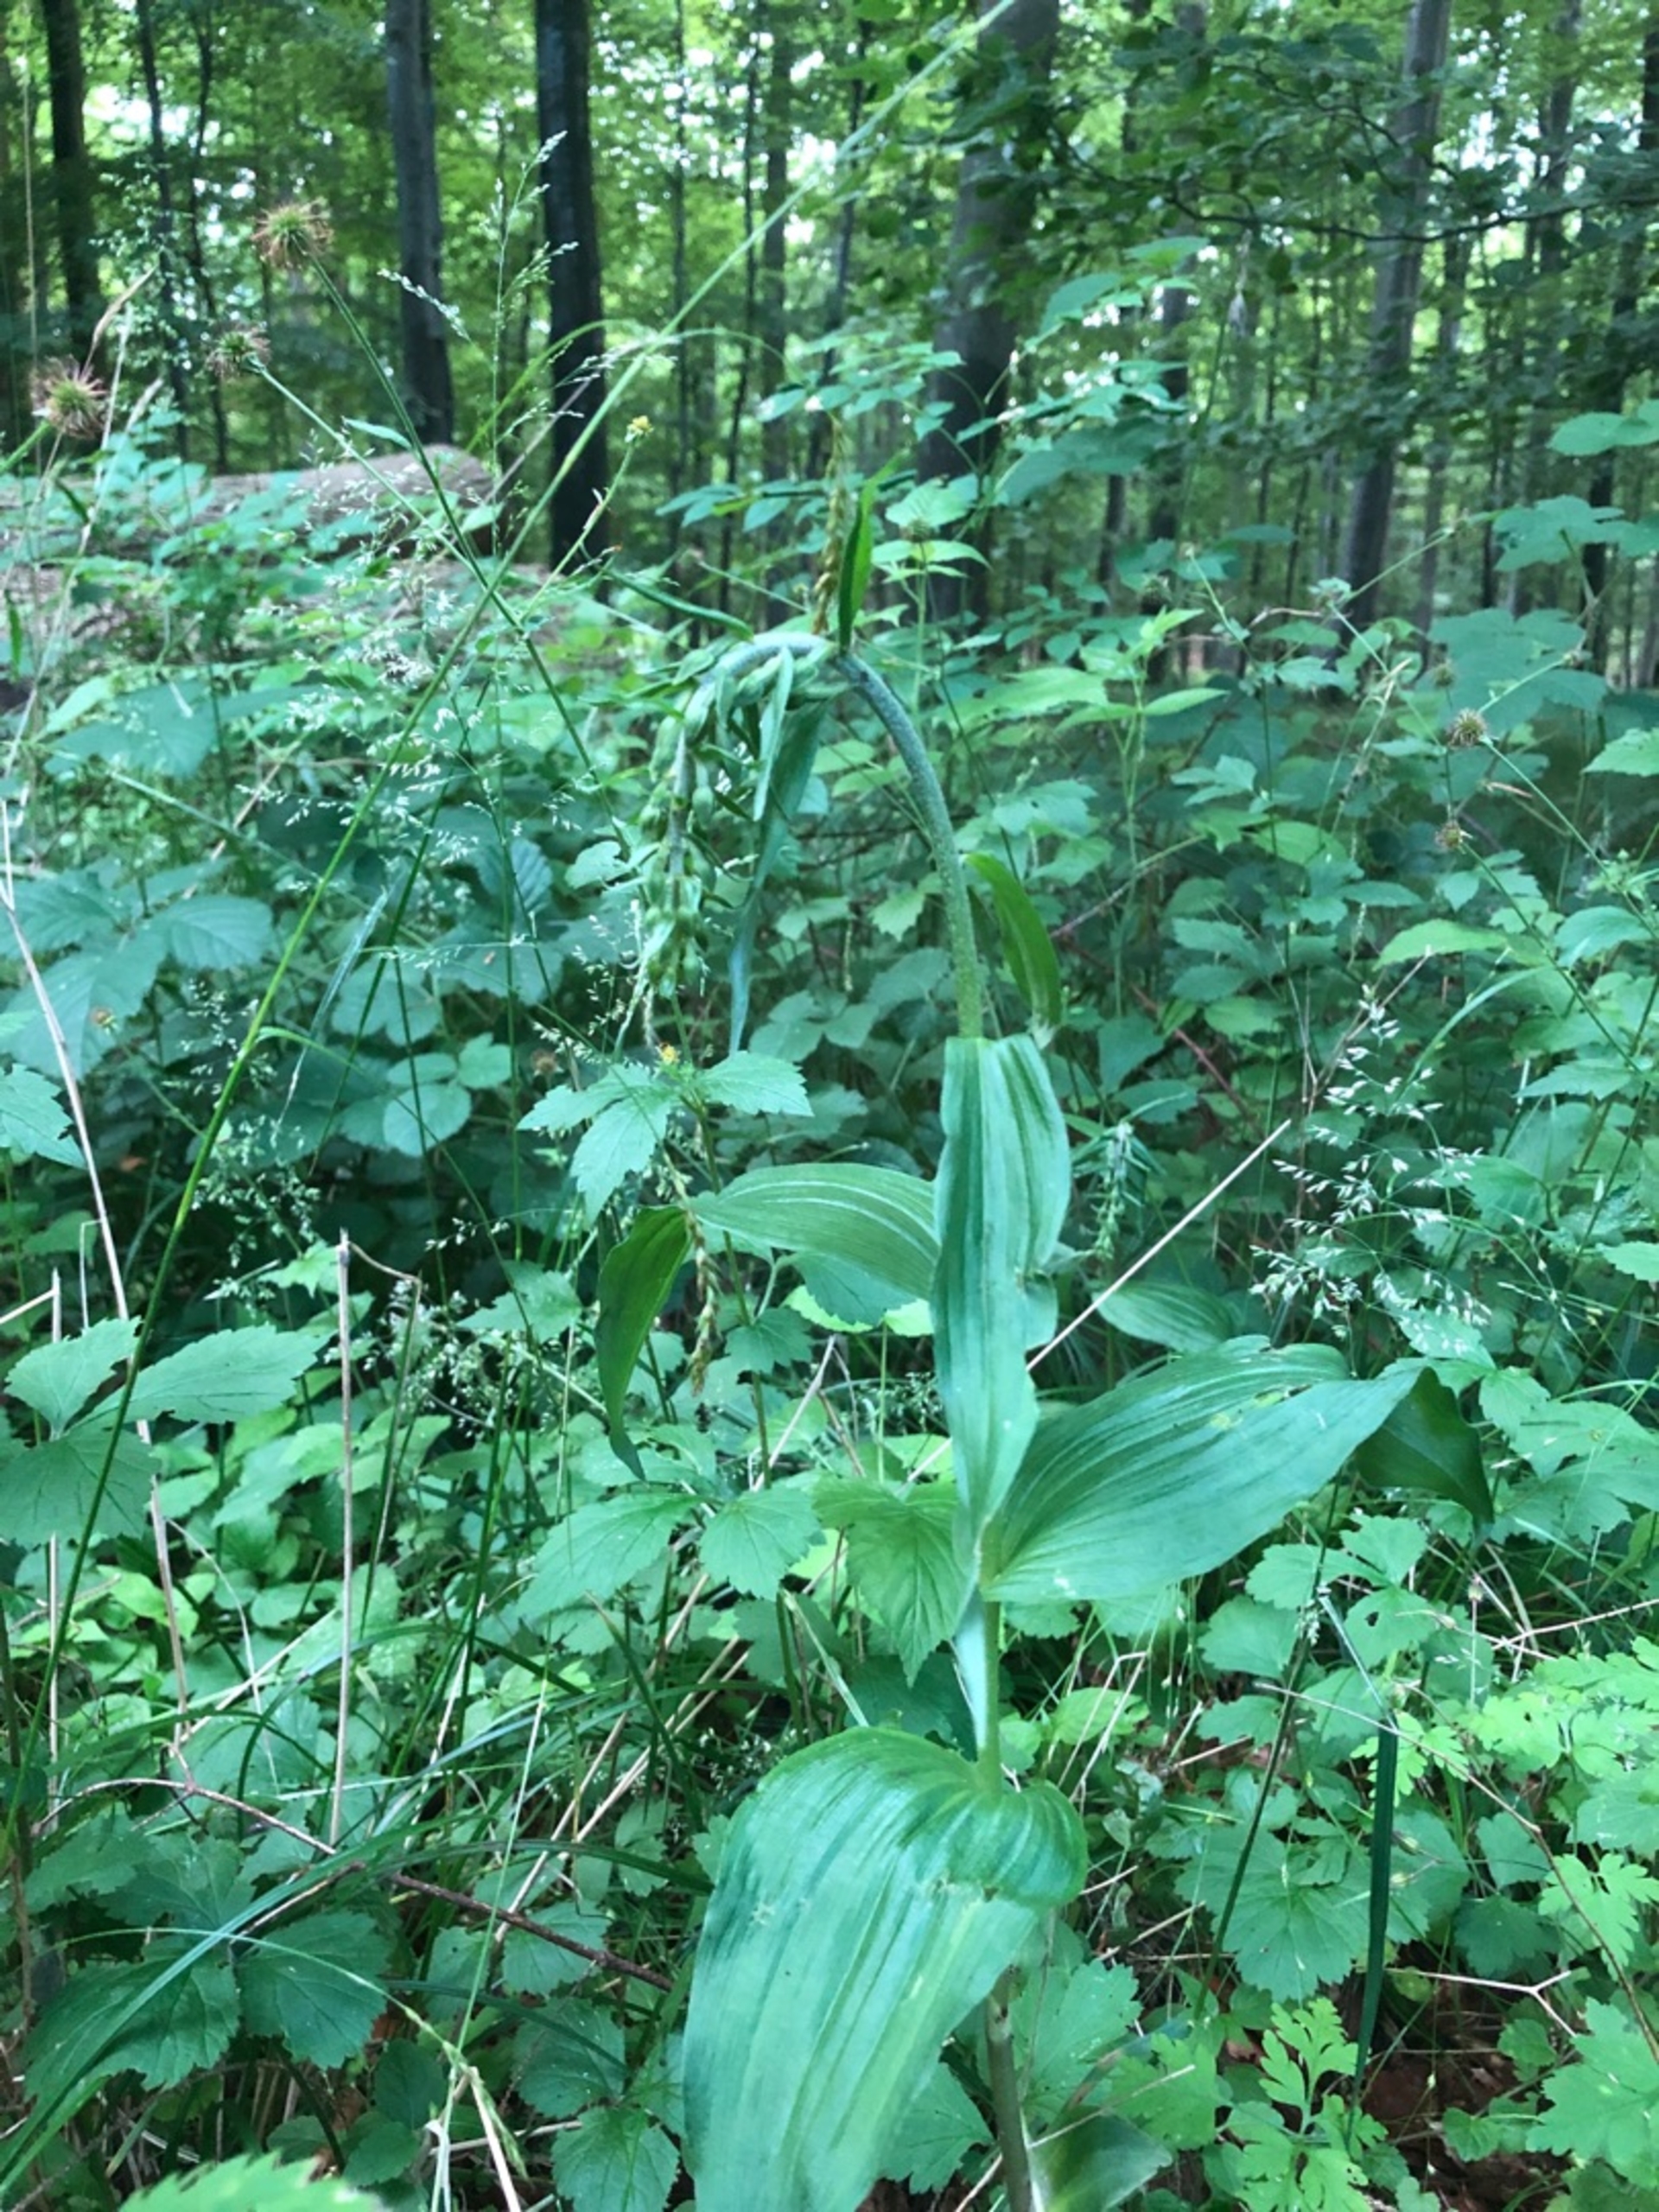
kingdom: Plantae
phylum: Tracheophyta
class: Liliopsida
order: Asparagales
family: Orchidaceae
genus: Epipactis
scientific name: Epipactis helleborine
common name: Skov-hullæbe
